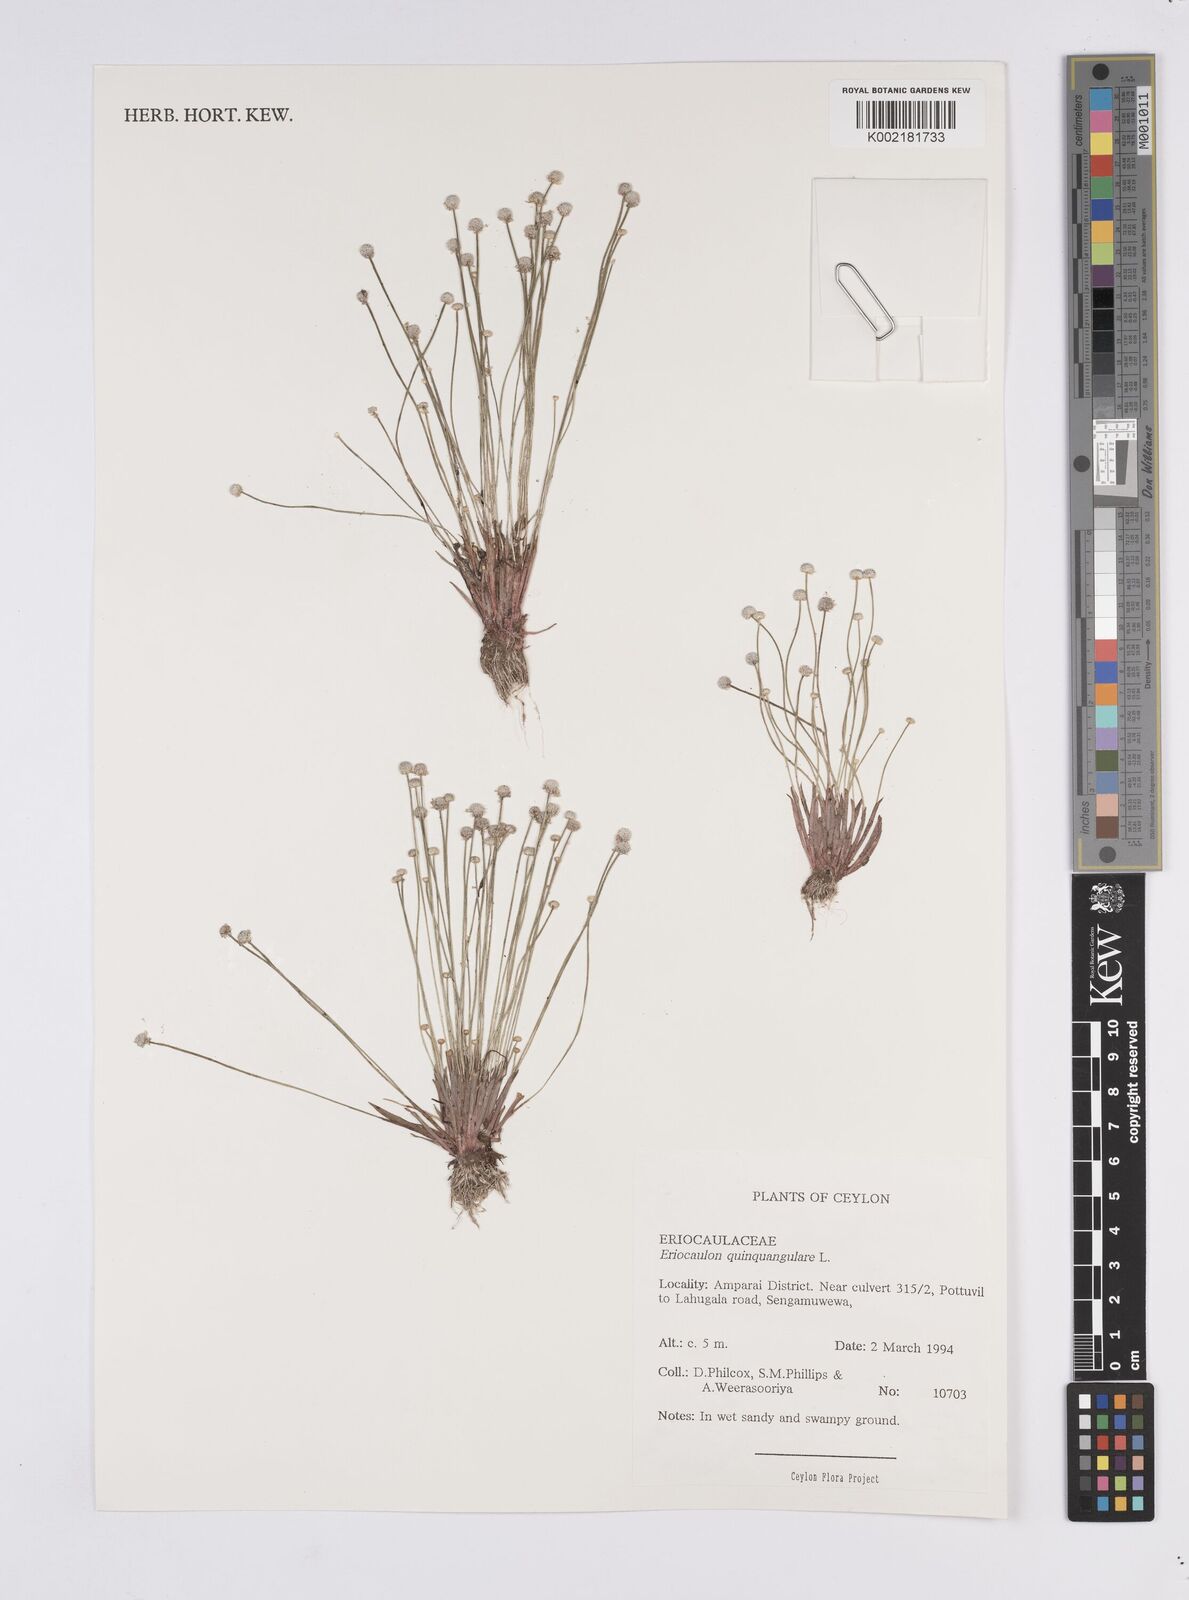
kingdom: Plantae
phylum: Tracheophyta
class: Liliopsida
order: Poales
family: Eriocaulaceae
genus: Eriocaulon
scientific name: Eriocaulon quinquangulare
